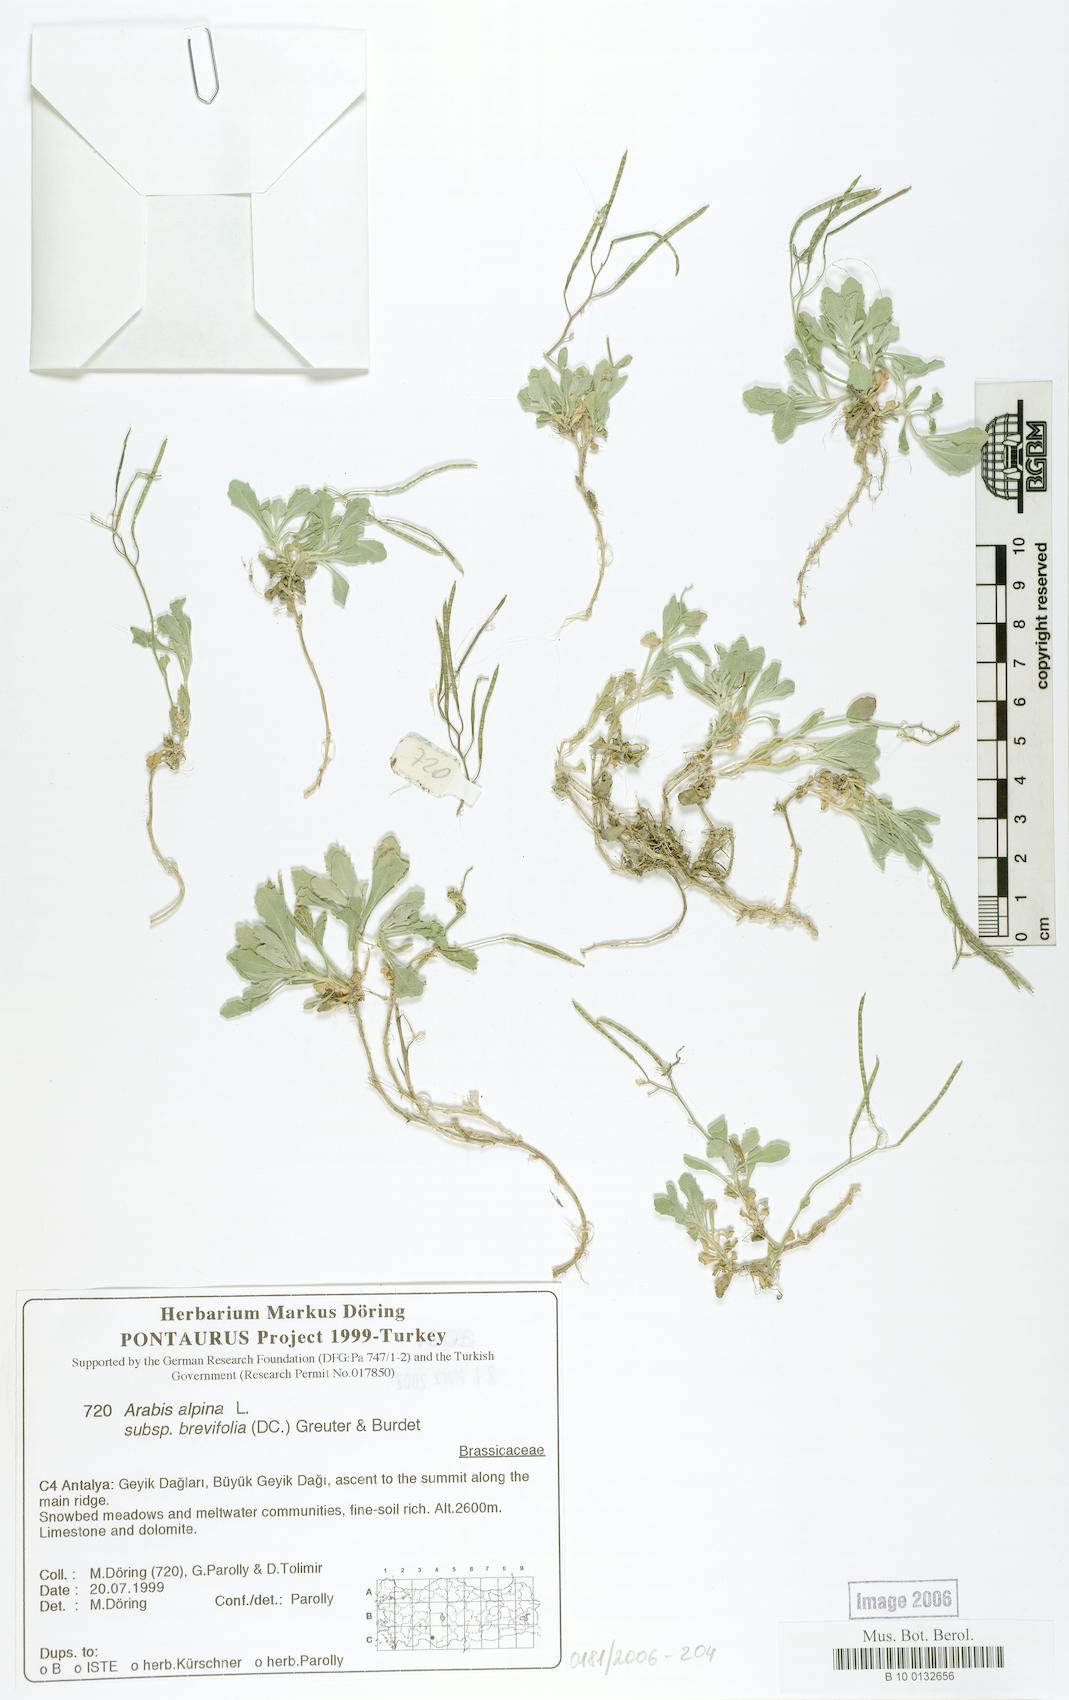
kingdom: Plantae
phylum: Tracheophyta
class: Magnoliopsida
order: Brassicales
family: Brassicaceae
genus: Arabis
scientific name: Arabis caucasica
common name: Gray rockcress
